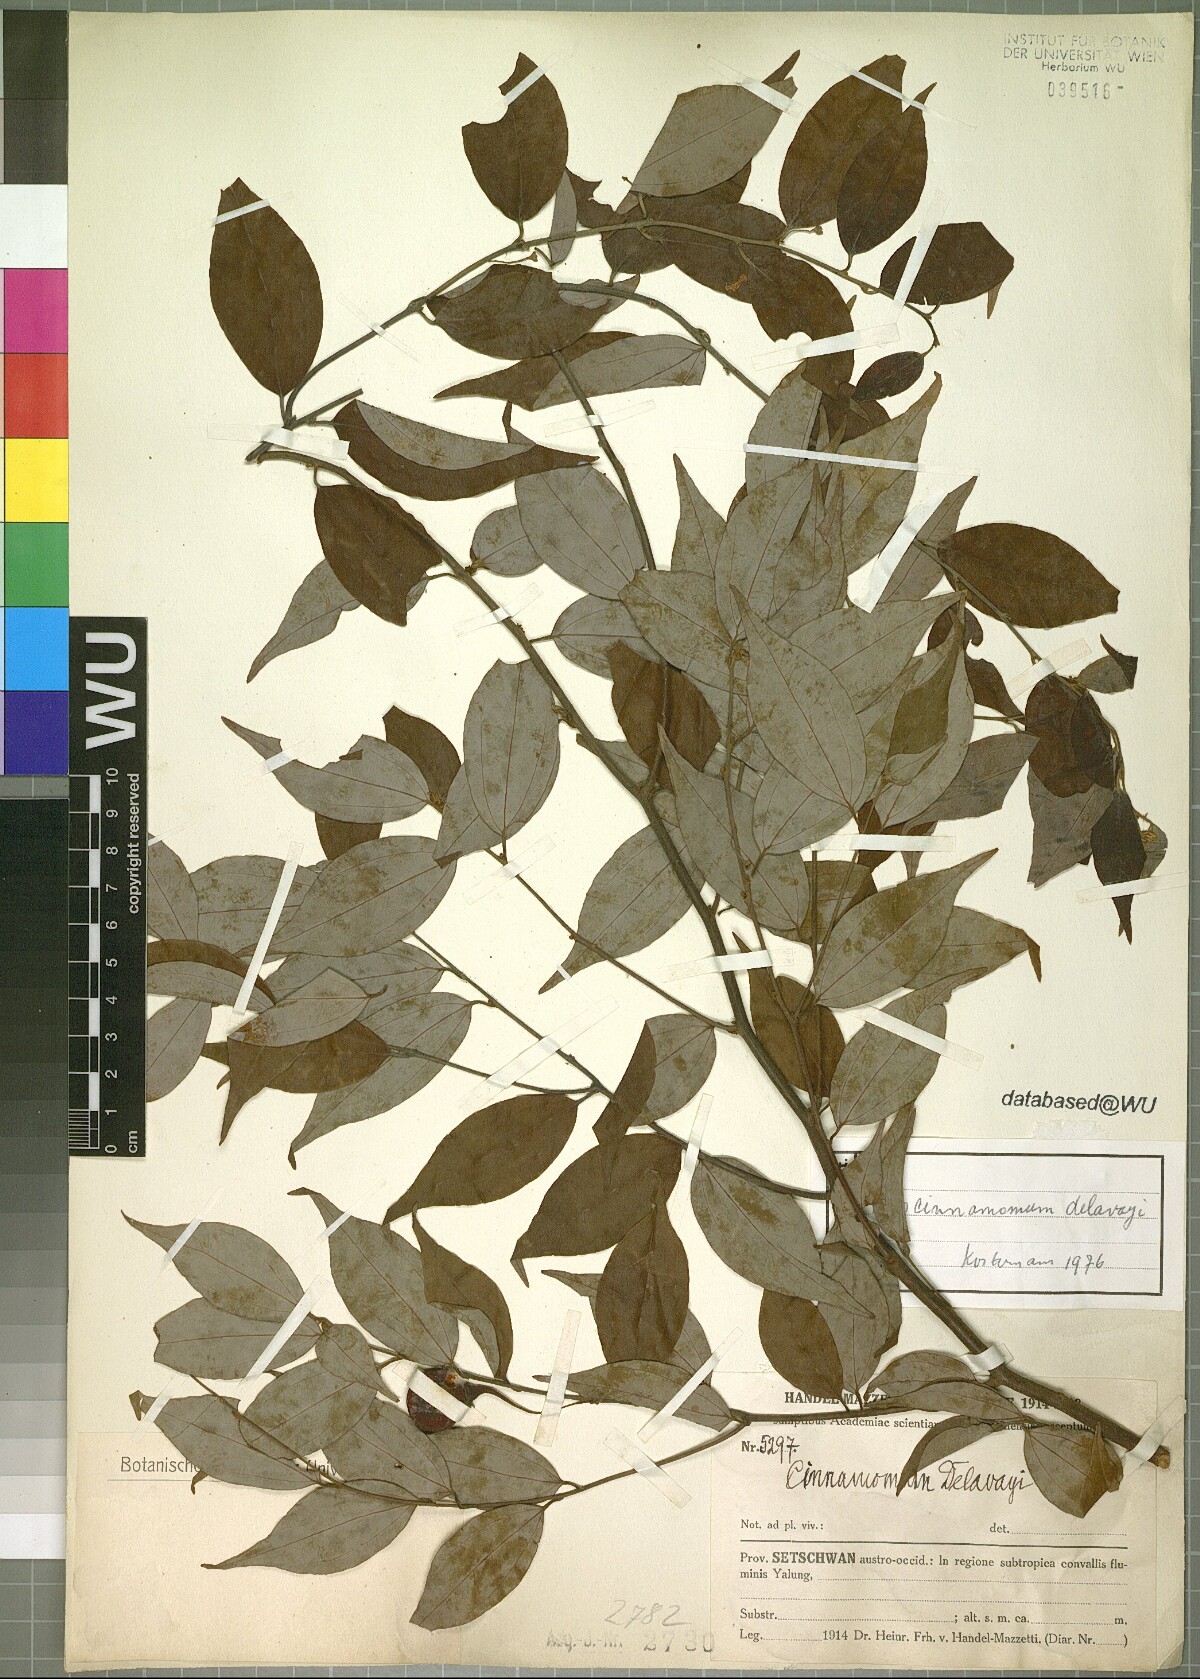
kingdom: Plantae
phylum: Tracheophyta
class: Magnoliopsida
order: Laurales
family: Lauraceae
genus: Neocinnamomum
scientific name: Neocinnamomum delavayi
